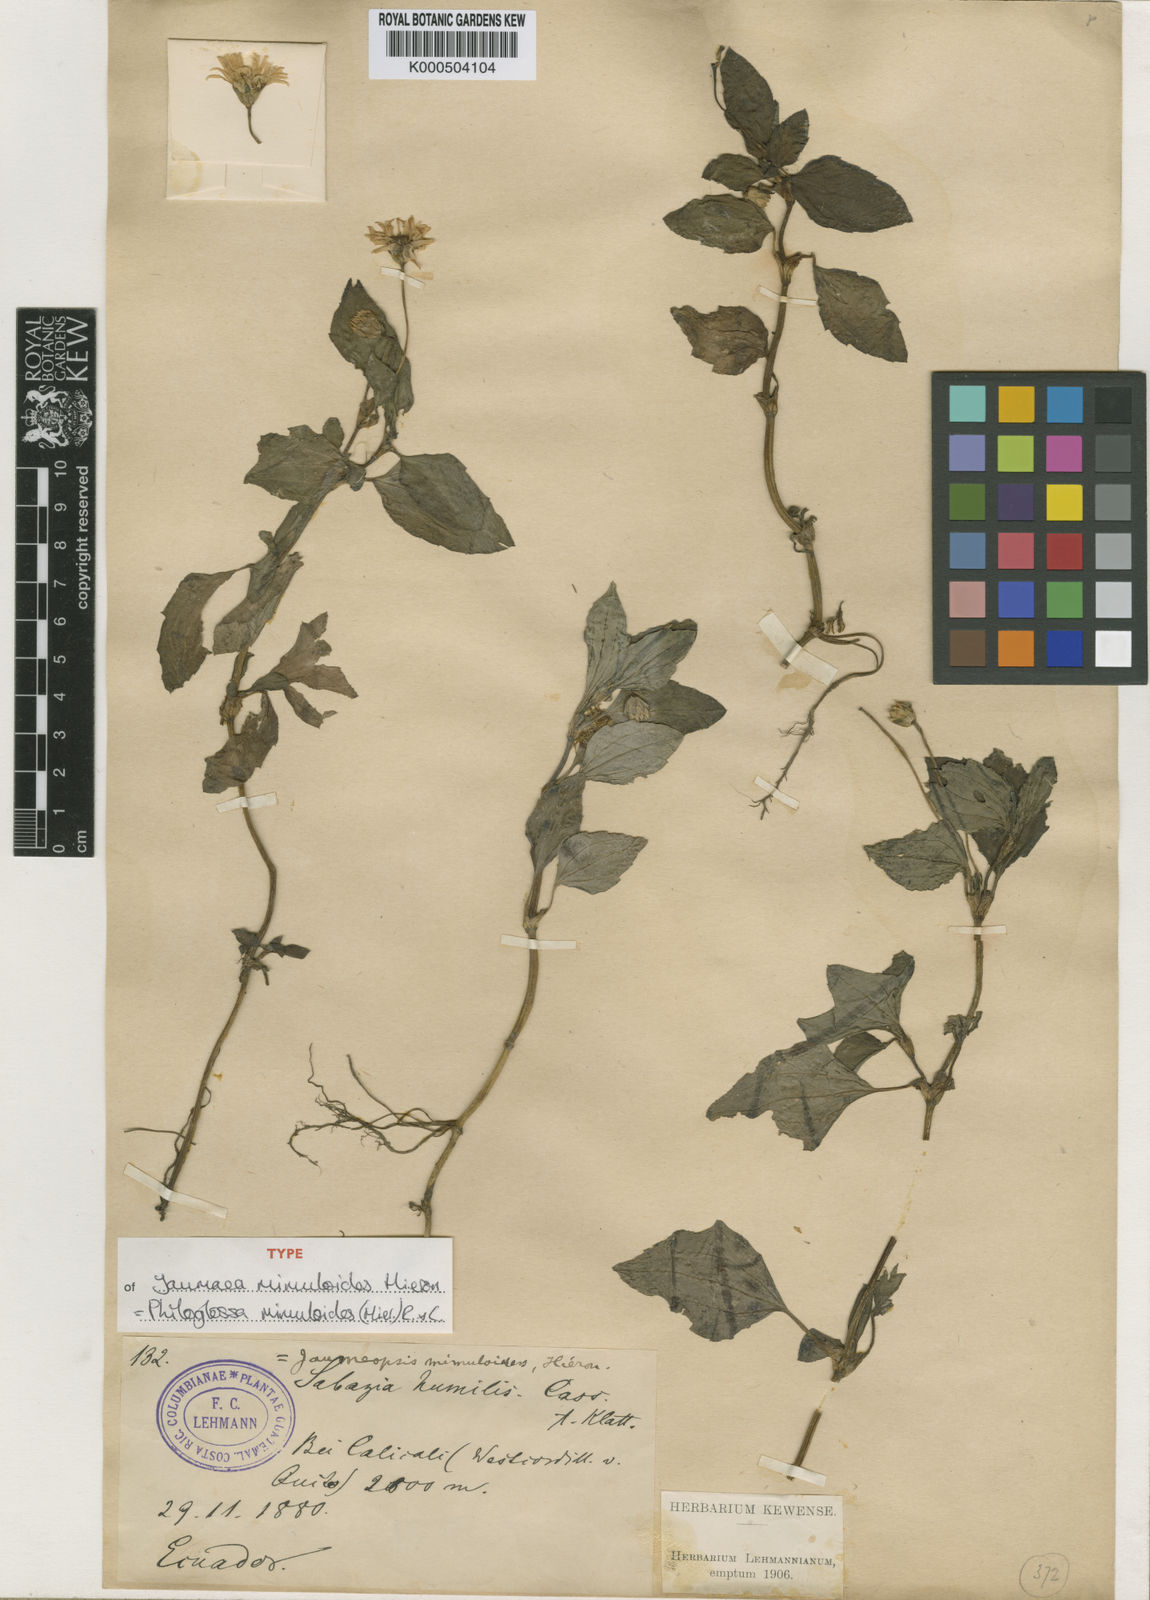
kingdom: Plantae
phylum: Tracheophyta
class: Magnoliopsida
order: Asterales
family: Asteraceae
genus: Philoglossa
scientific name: Philoglossa mimuloides
